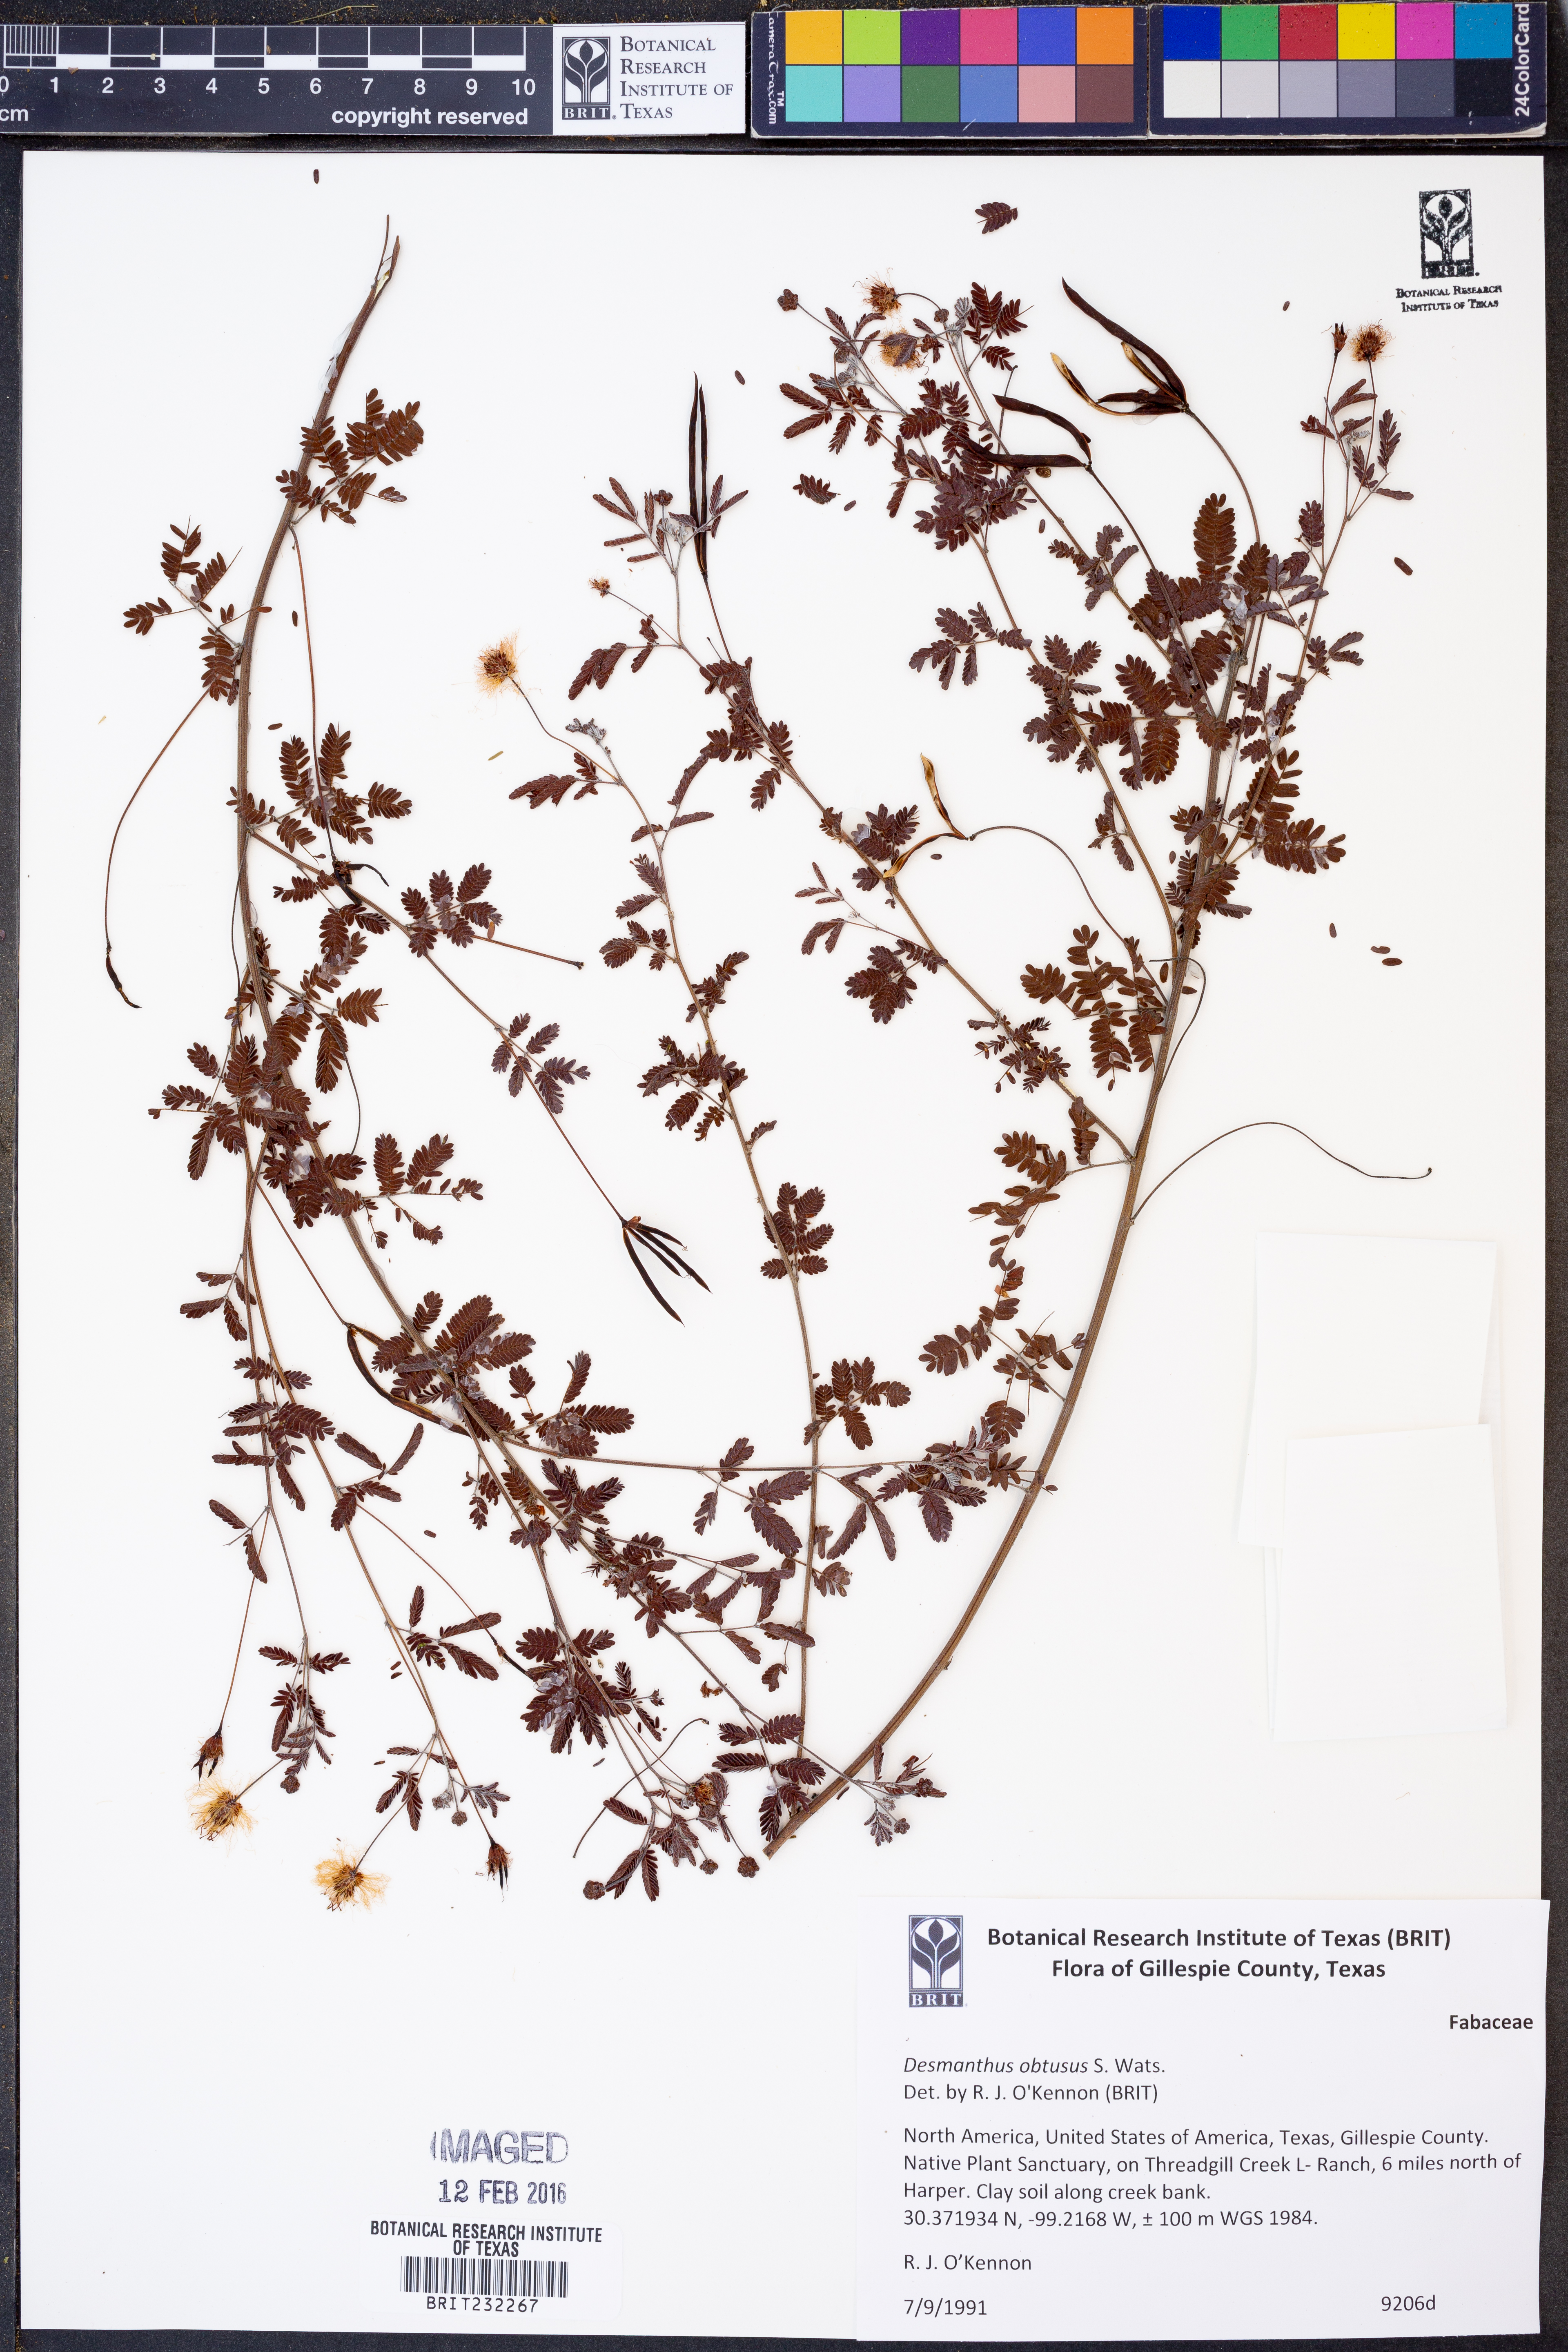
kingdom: Plantae
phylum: Tracheophyta
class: Magnoliopsida
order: Fabales
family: Fabaceae
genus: Desmanthus
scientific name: Desmanthus obtusus
